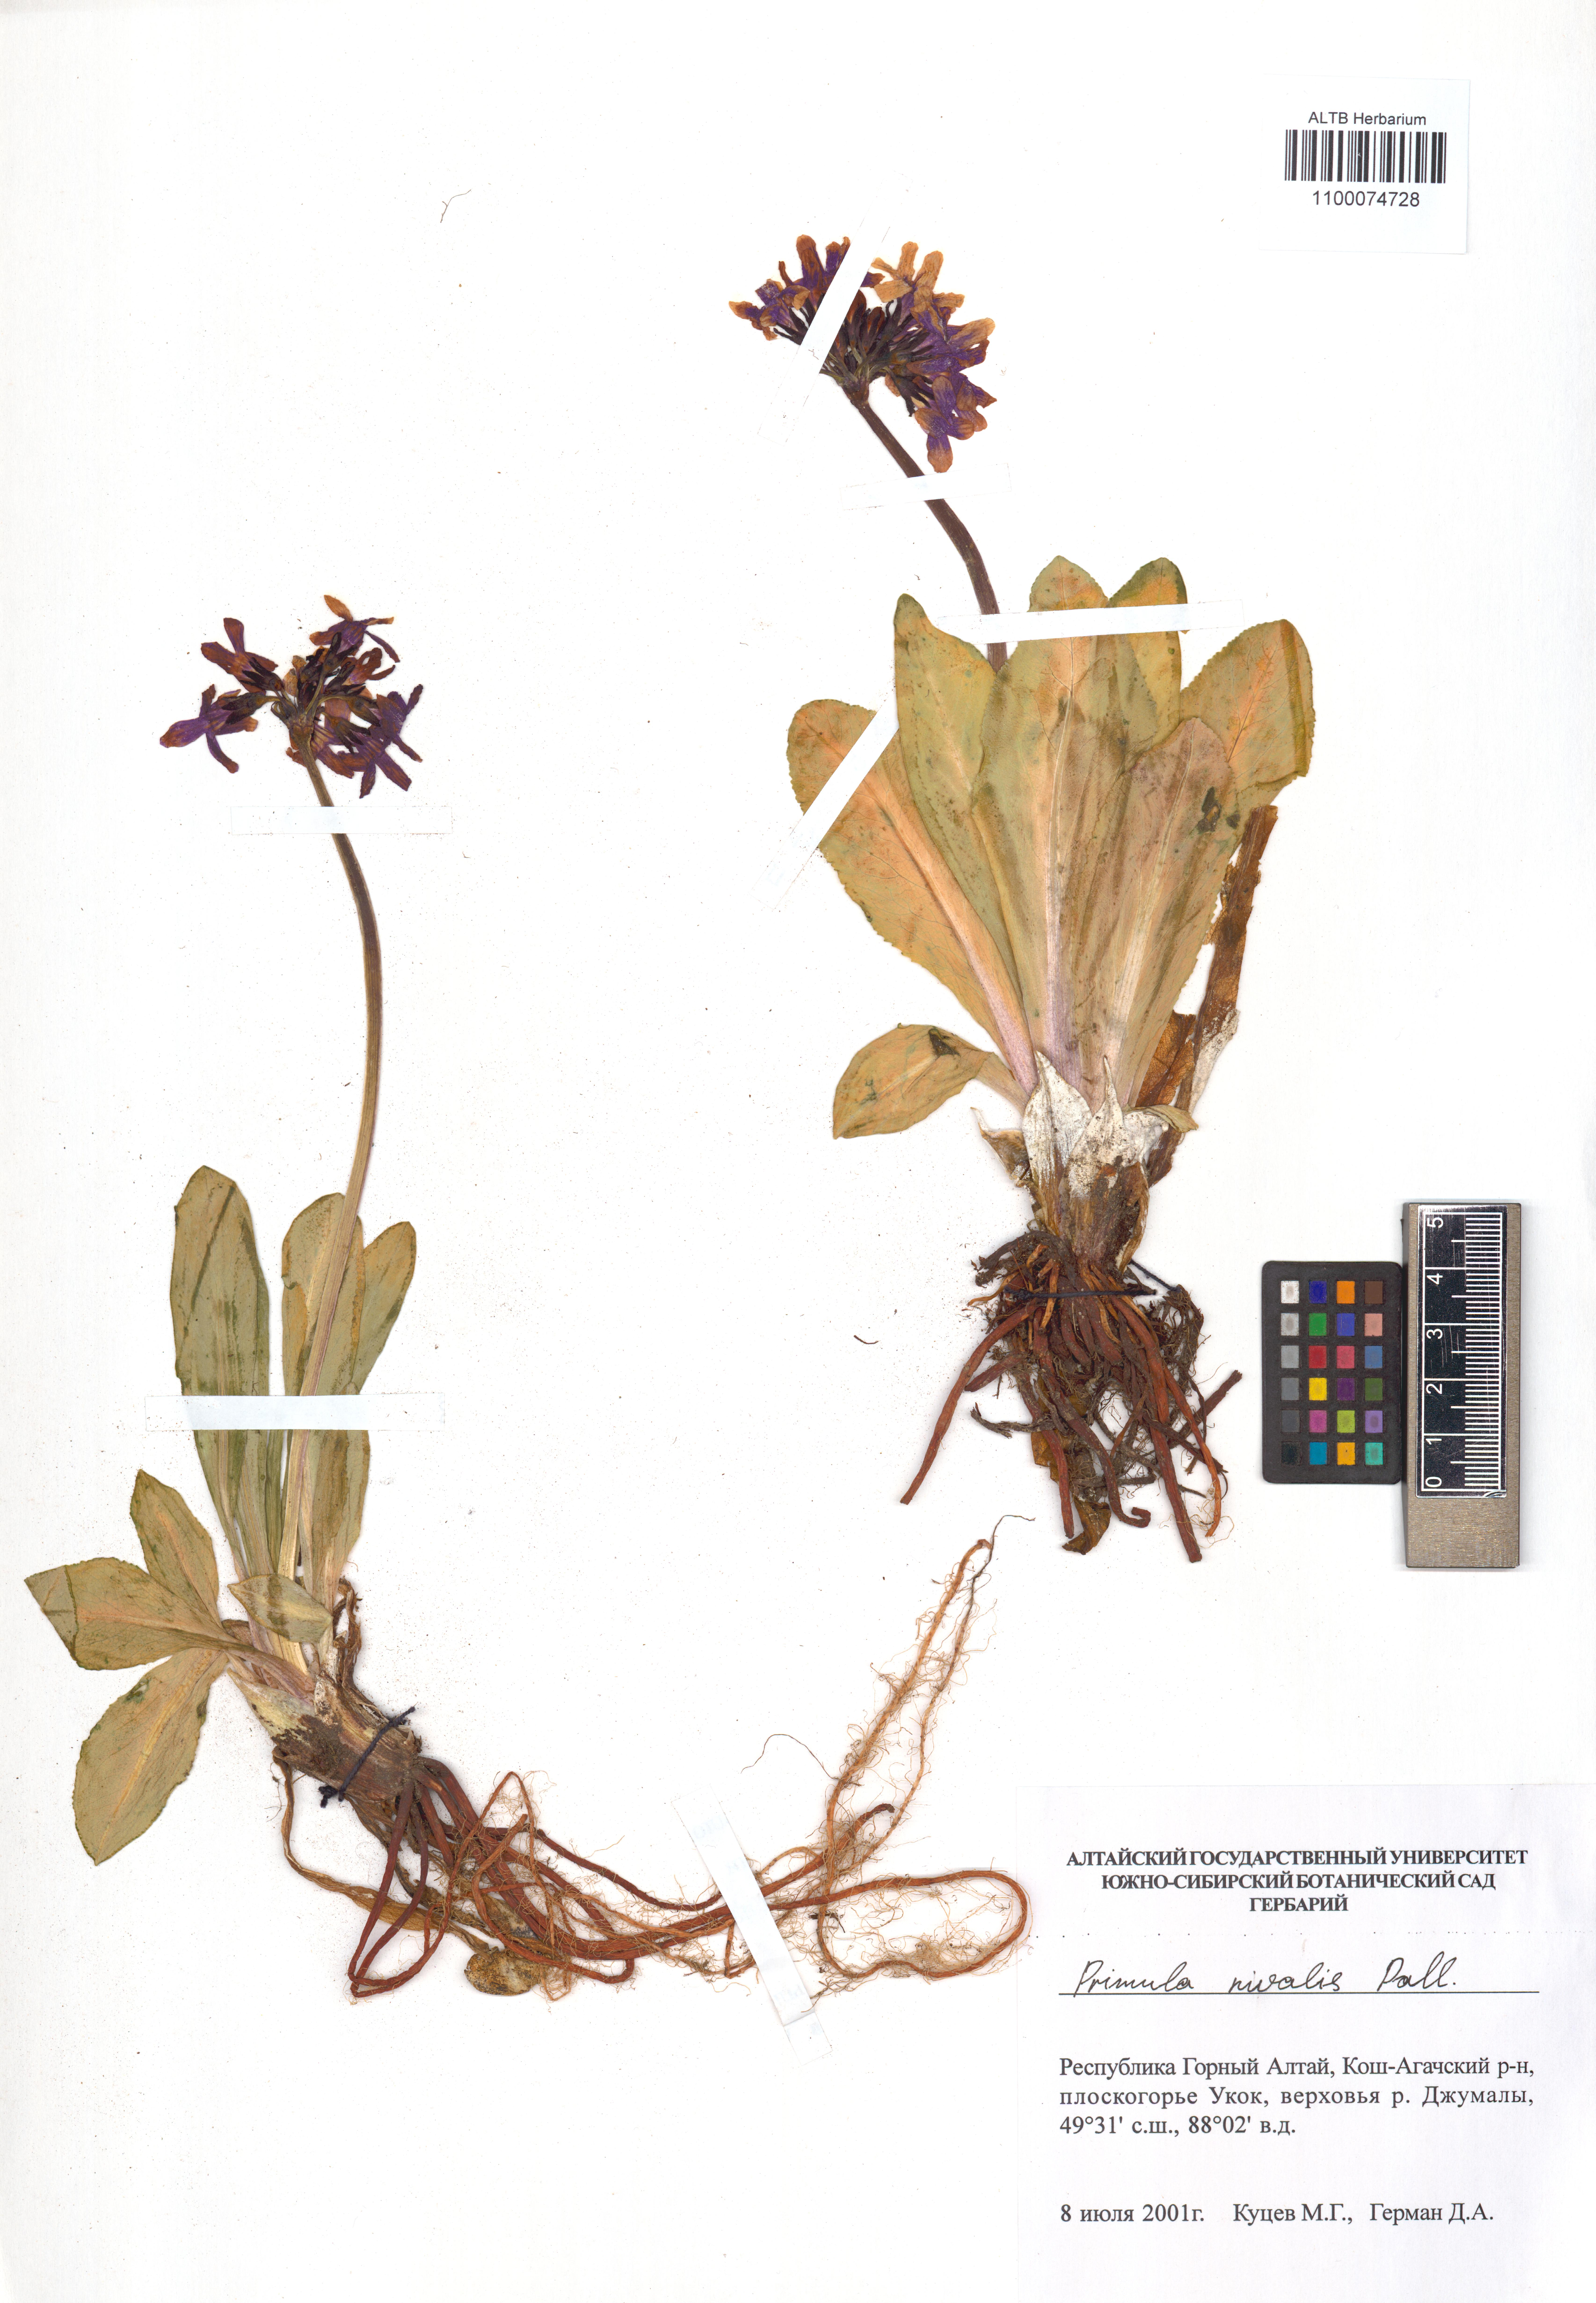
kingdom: Plantae
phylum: Tracheophyta
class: Magnoliopsida
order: Ericales
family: Primulaceae
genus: Primula
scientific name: Primula nivalis
